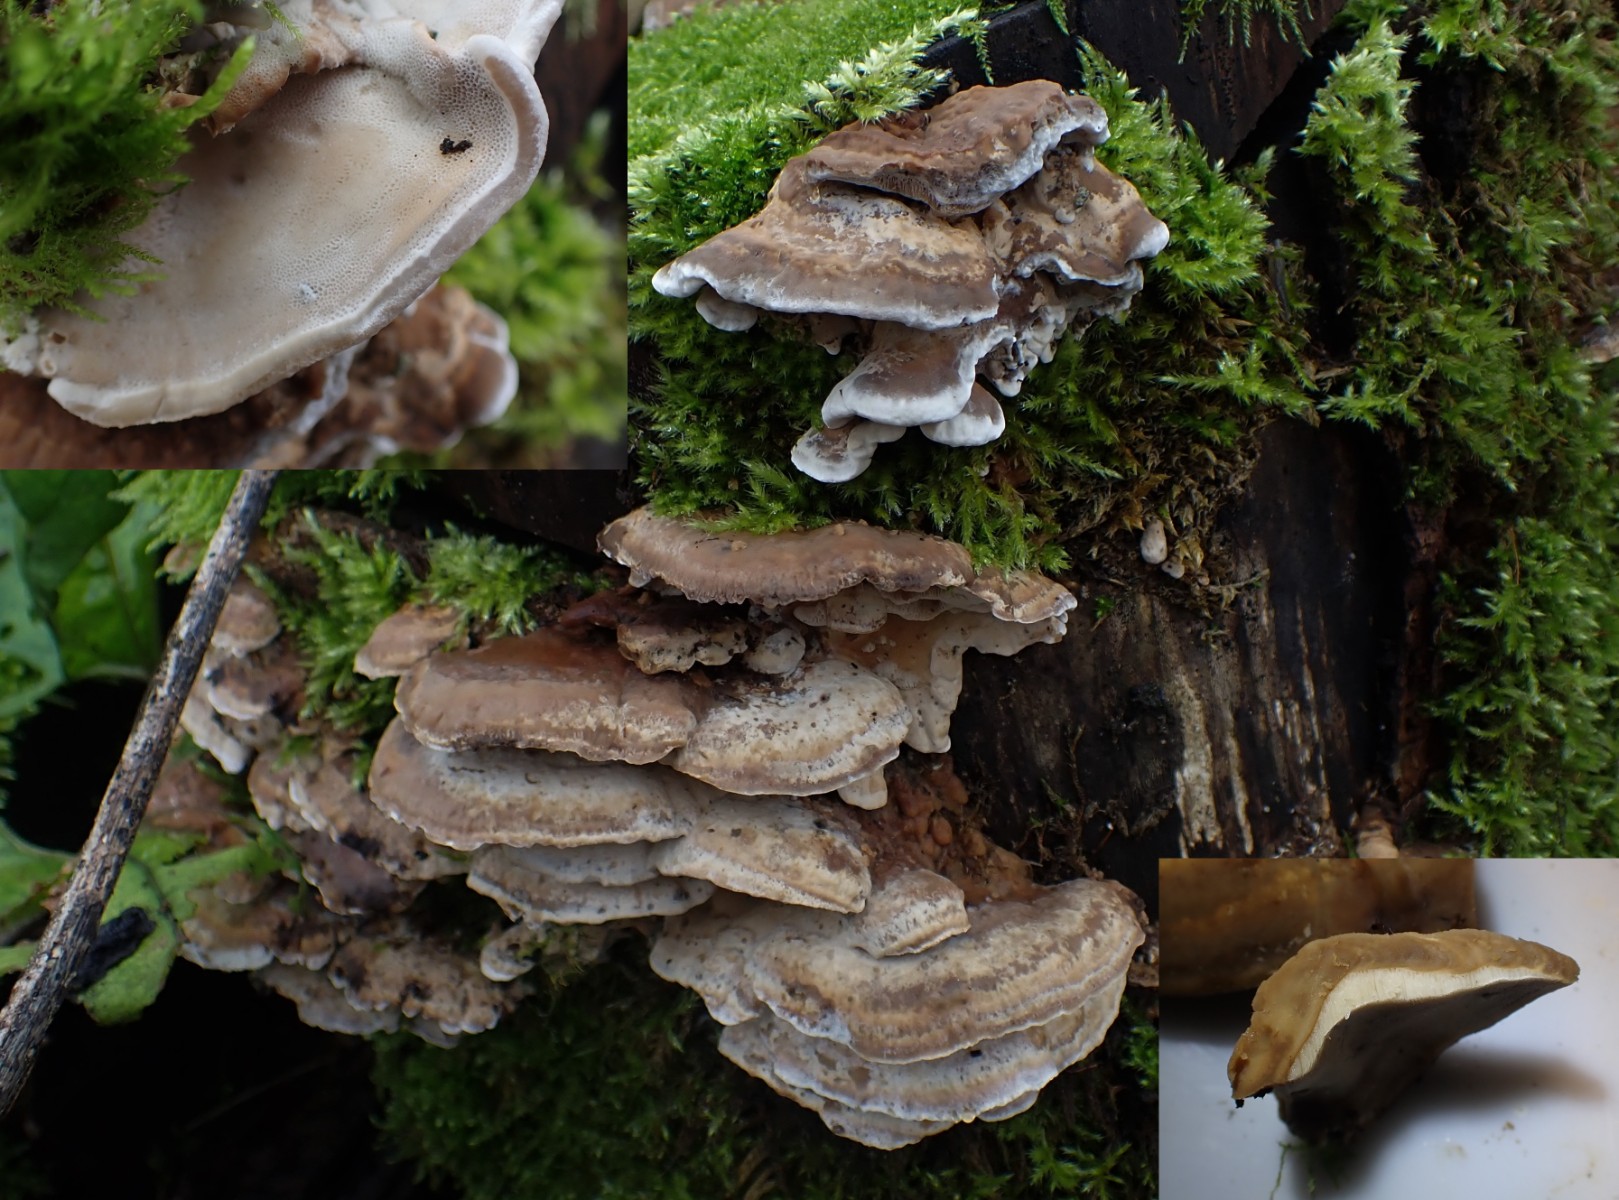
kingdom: Fungi
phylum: Basidiomycota
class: Agaricomycetes
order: Polyporales
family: Phanerochaetaceae
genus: Bjerkandera
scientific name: Bjerkandera fumosa
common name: grågul sodporesvamp
